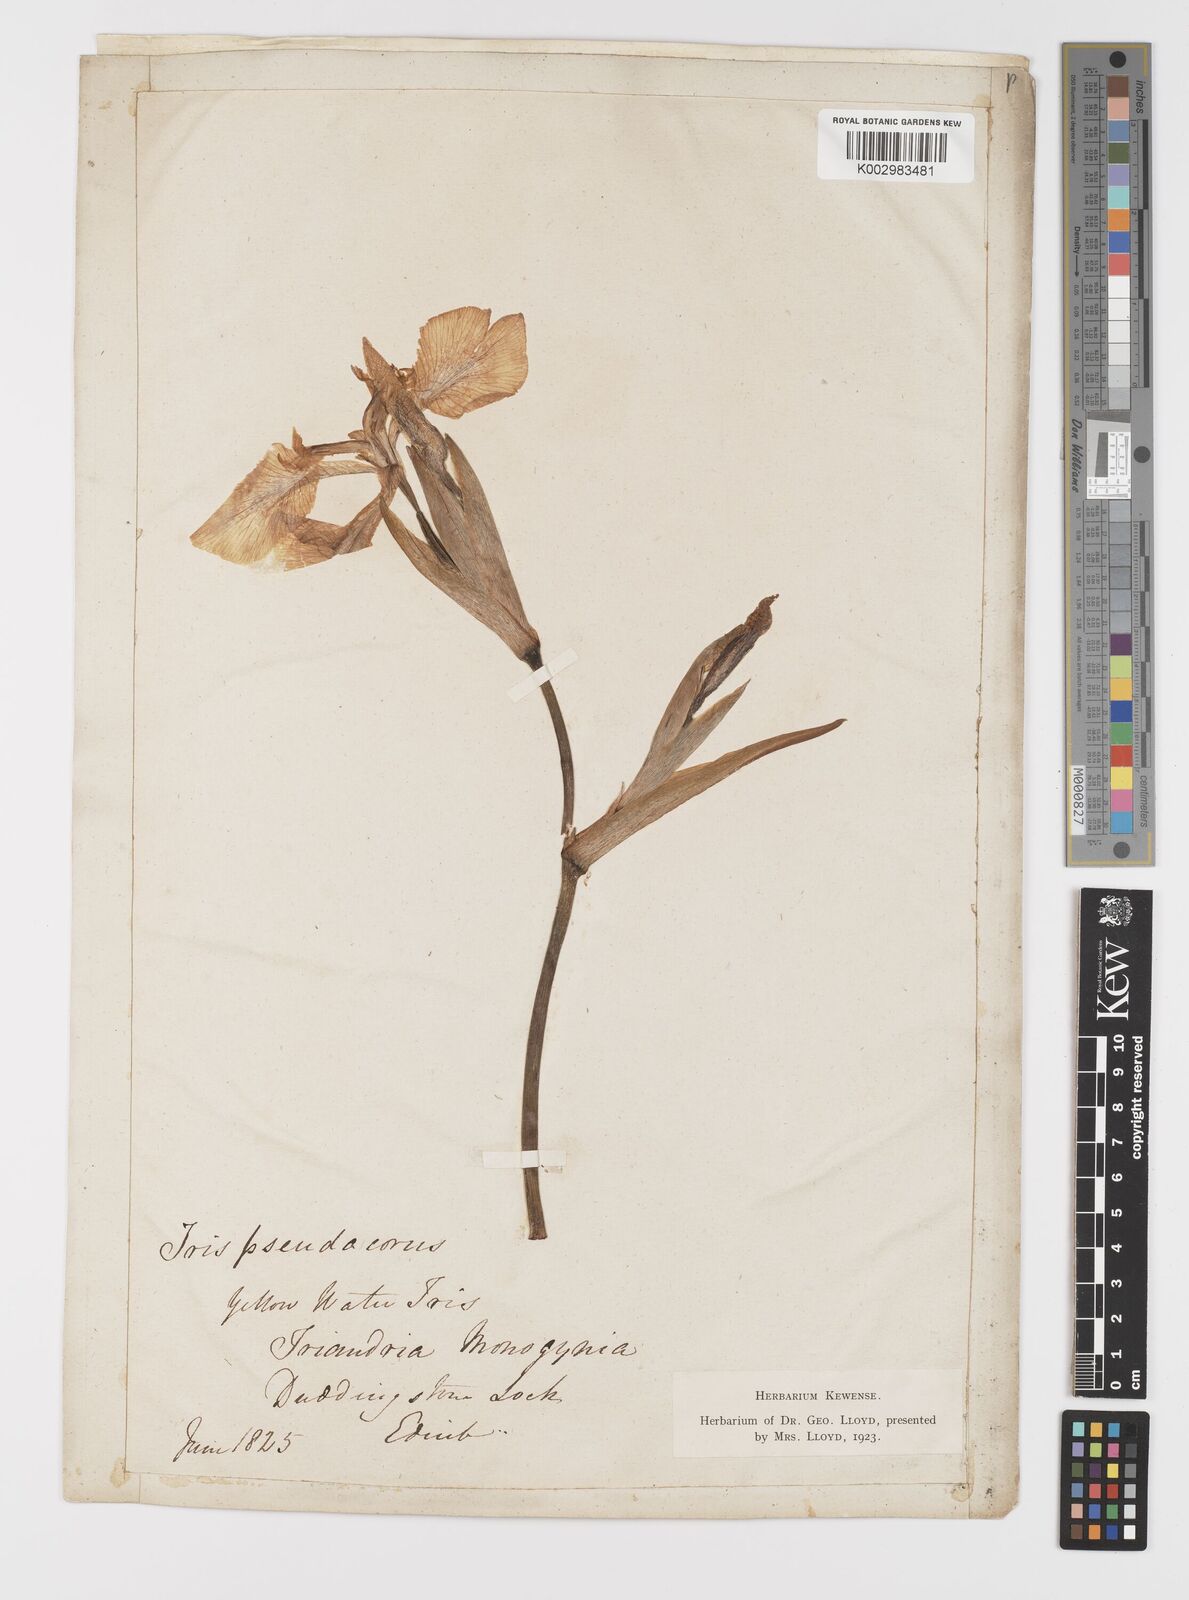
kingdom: Plantae
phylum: Tracheophyta
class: Liliopsida
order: Asparagales
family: Iridaceae
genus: Iris
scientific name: Iris pseudacorus
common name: Yellow flag
